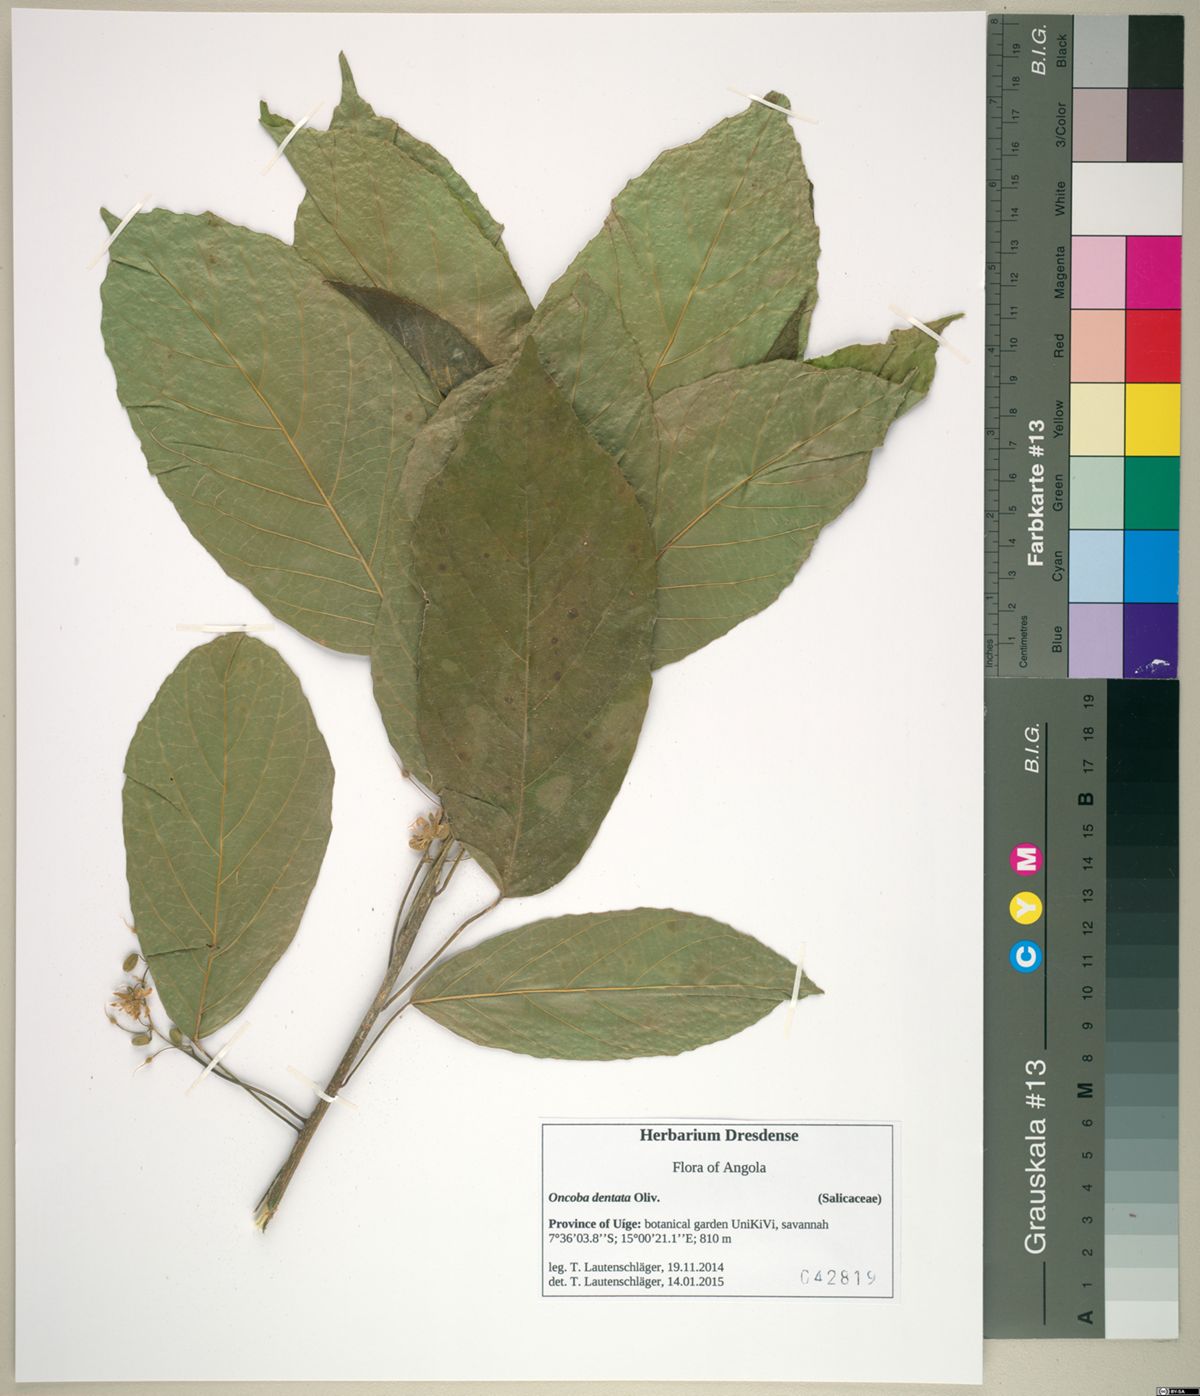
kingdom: Plantae
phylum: Tracheophyta
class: Magnoliopsida
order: Malpighiales
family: Achariaceae
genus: Lindackeria
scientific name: Lindackeria dentata
